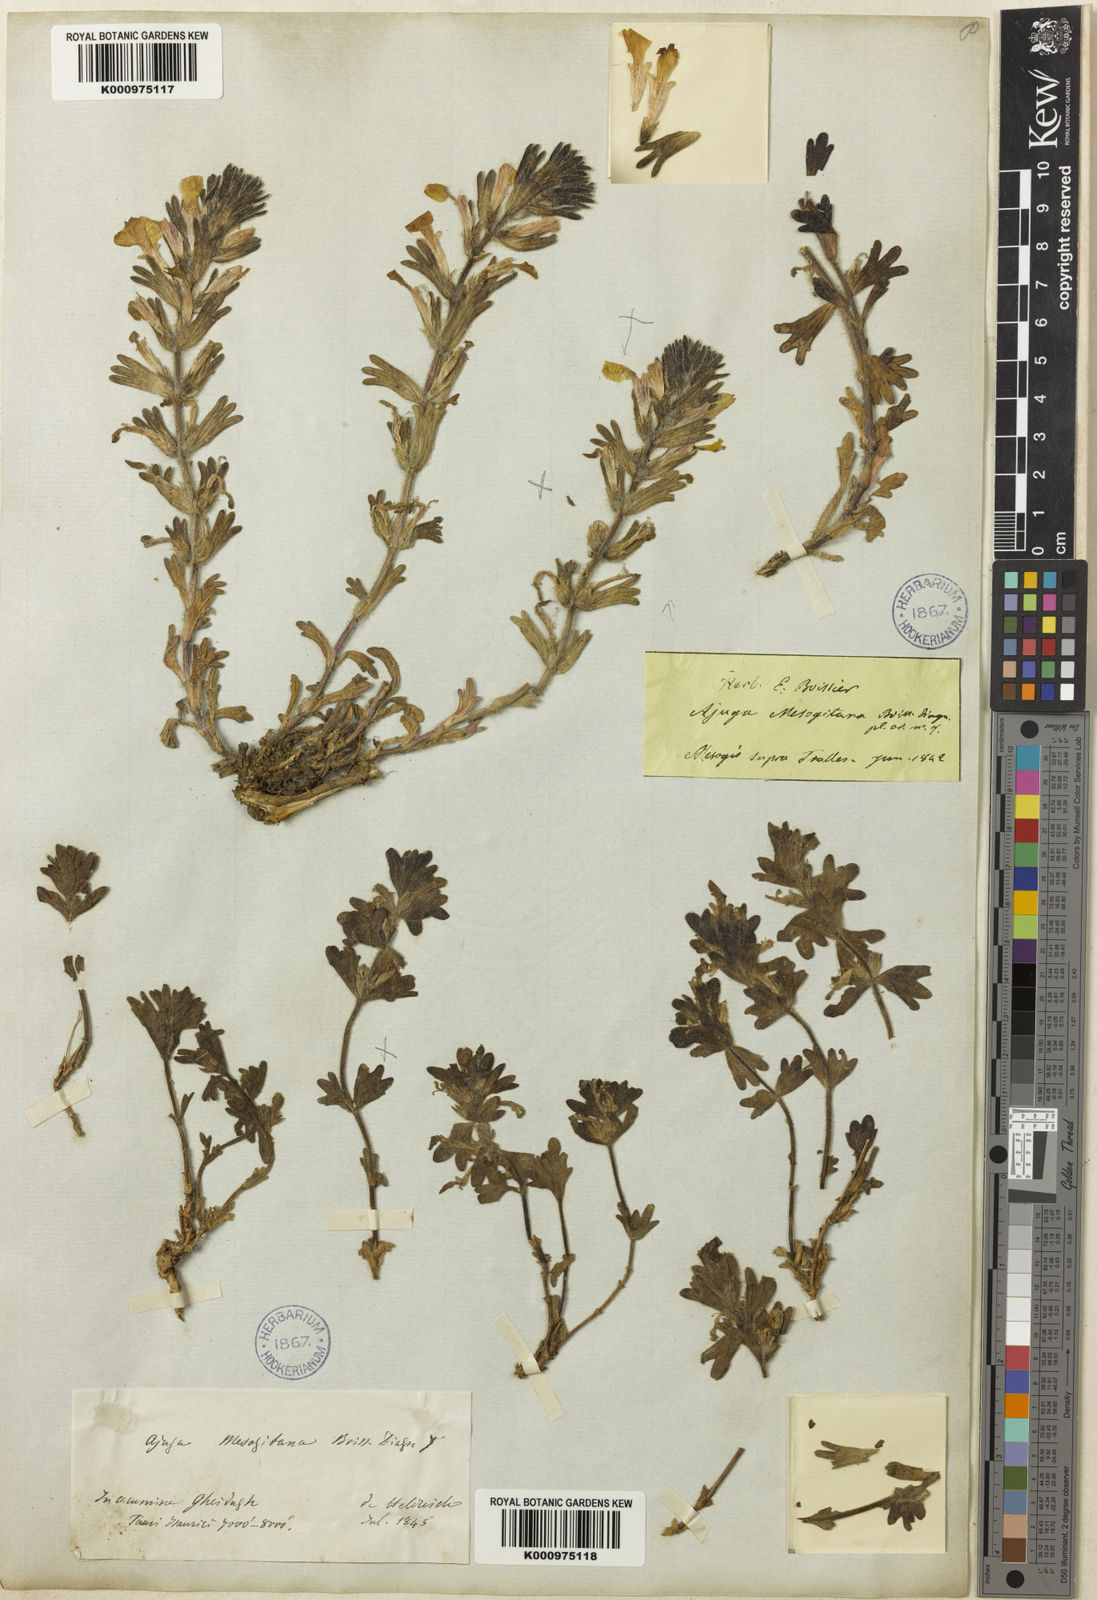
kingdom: Plantae
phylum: Tracheophyta
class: Magnoliopsida
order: Lamiales
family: Lamiaceae
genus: Ajuga
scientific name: Ajuga chamaepitys
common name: Ground-pine
